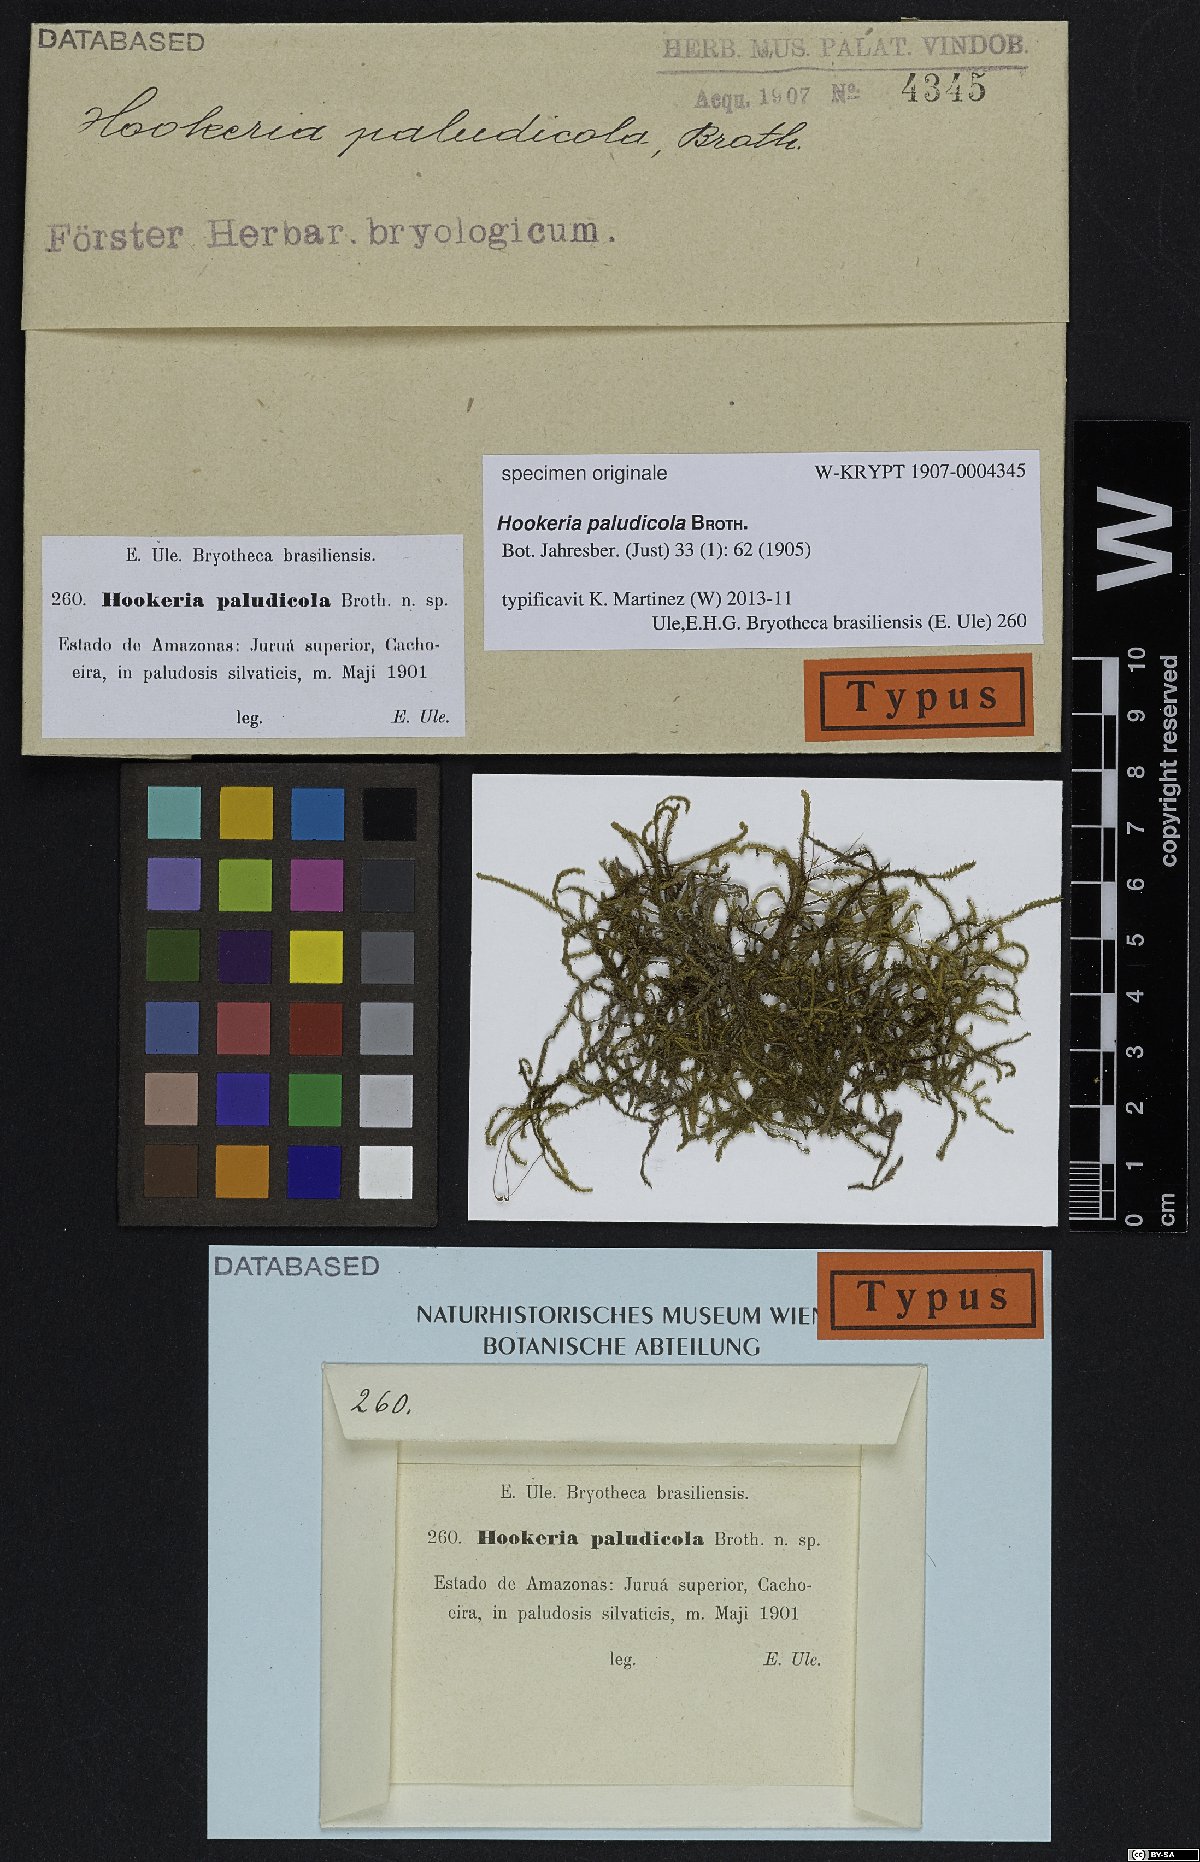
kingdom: Plantae
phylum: Bryophyta
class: Bryopsida
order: Hookeriales
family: Hookeriaceae
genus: Hookeria
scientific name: Hookeria
